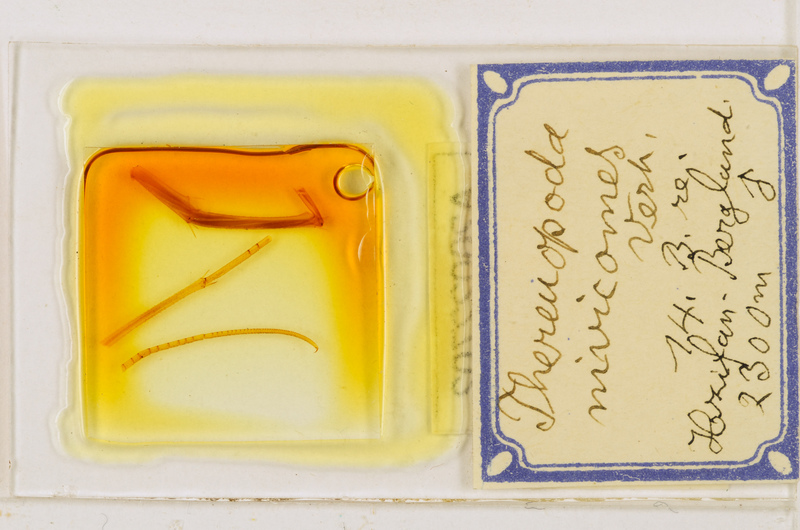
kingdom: Animalia
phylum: Arthropoda
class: Chilopoda
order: Scutigeromorpha
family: Scutigeridae
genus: Thereuopoda
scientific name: Thereuopoda longicornis
